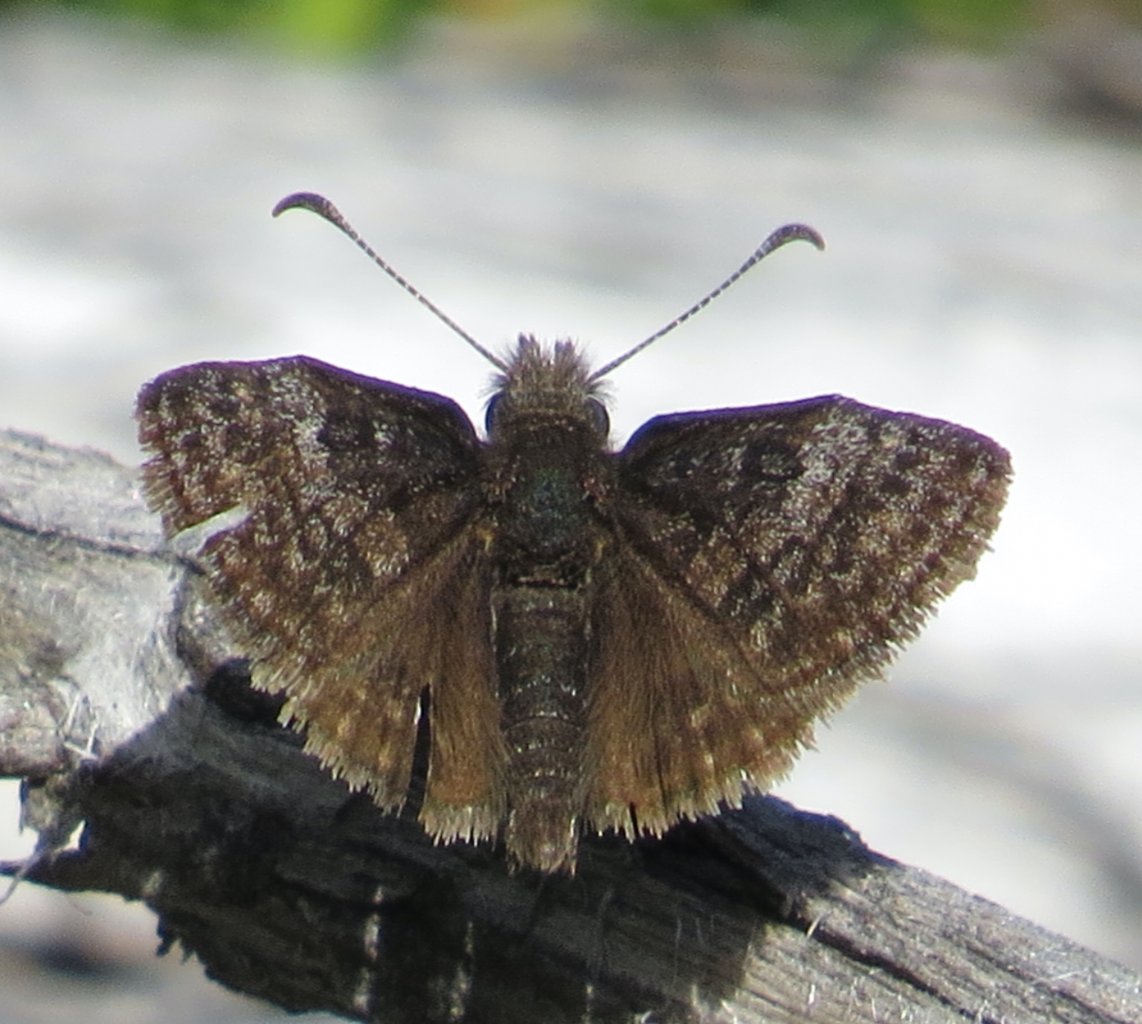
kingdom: Animalia
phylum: Arthropoda
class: Insecta
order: Lepidoptera
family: Hesperiidae
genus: Erynnis
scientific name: Erynnis icelus
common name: Dreamy Duskywing
